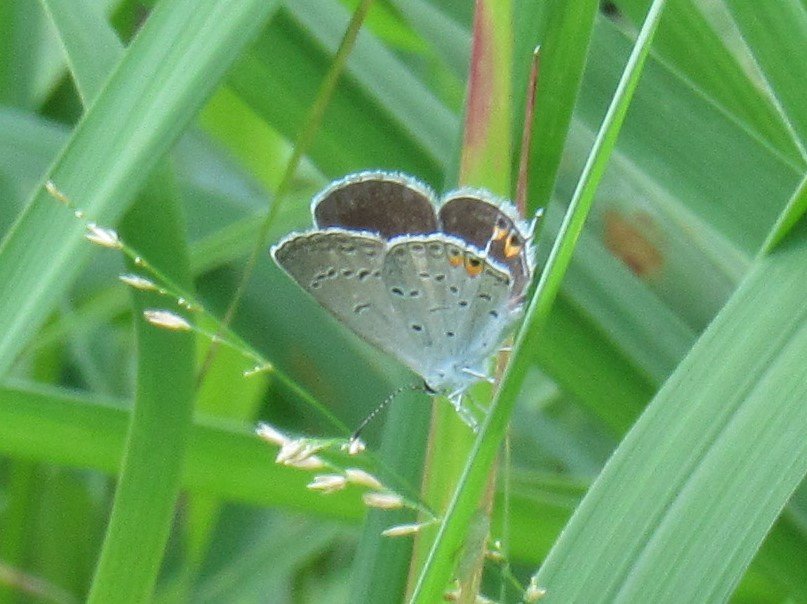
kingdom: Animalia
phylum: Arthropoda
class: Insecta
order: Lepidoptera
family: Lycaenidae
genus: Elkalyce
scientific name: Elkalyce comyntas
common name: Eastern Tailed-Blue
